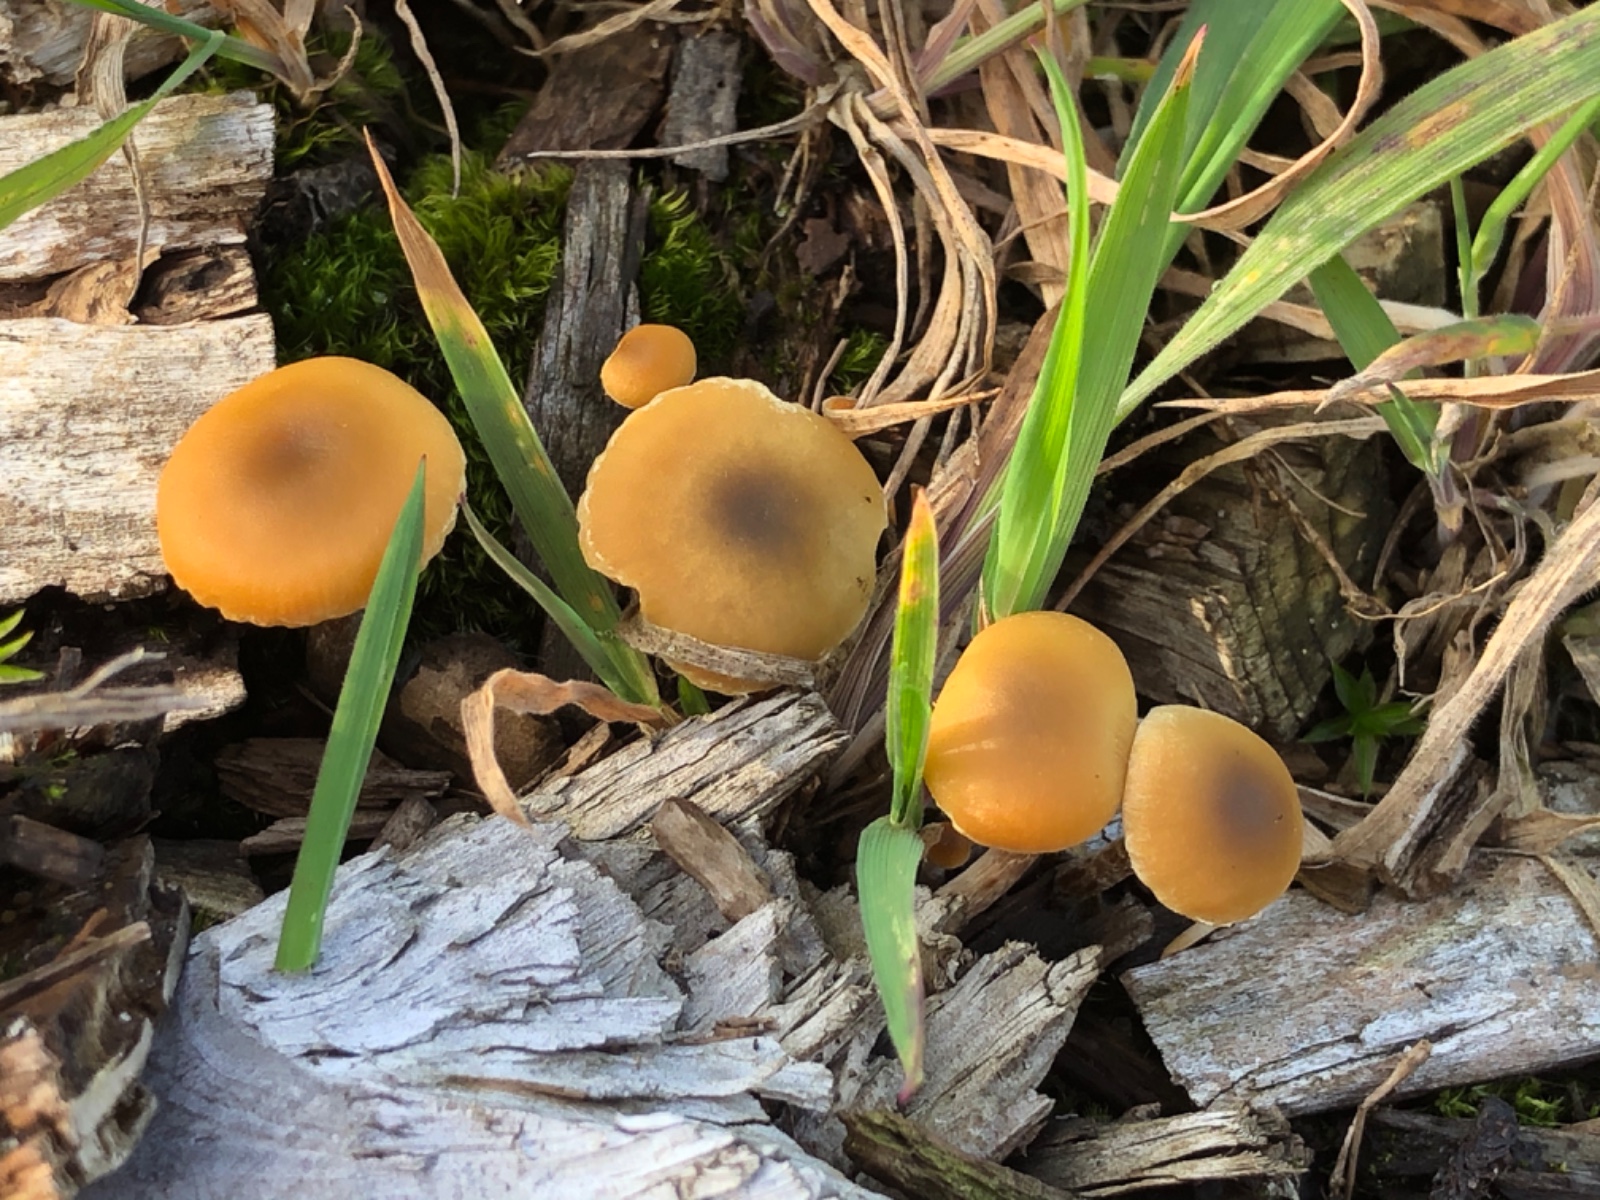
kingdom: Fungi
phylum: Basidiomycota
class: Agaricomycetes
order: Agaricales
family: Strophariaceae
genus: Hypholoma
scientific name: Hypholoma elongatum
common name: slank svovlhat
